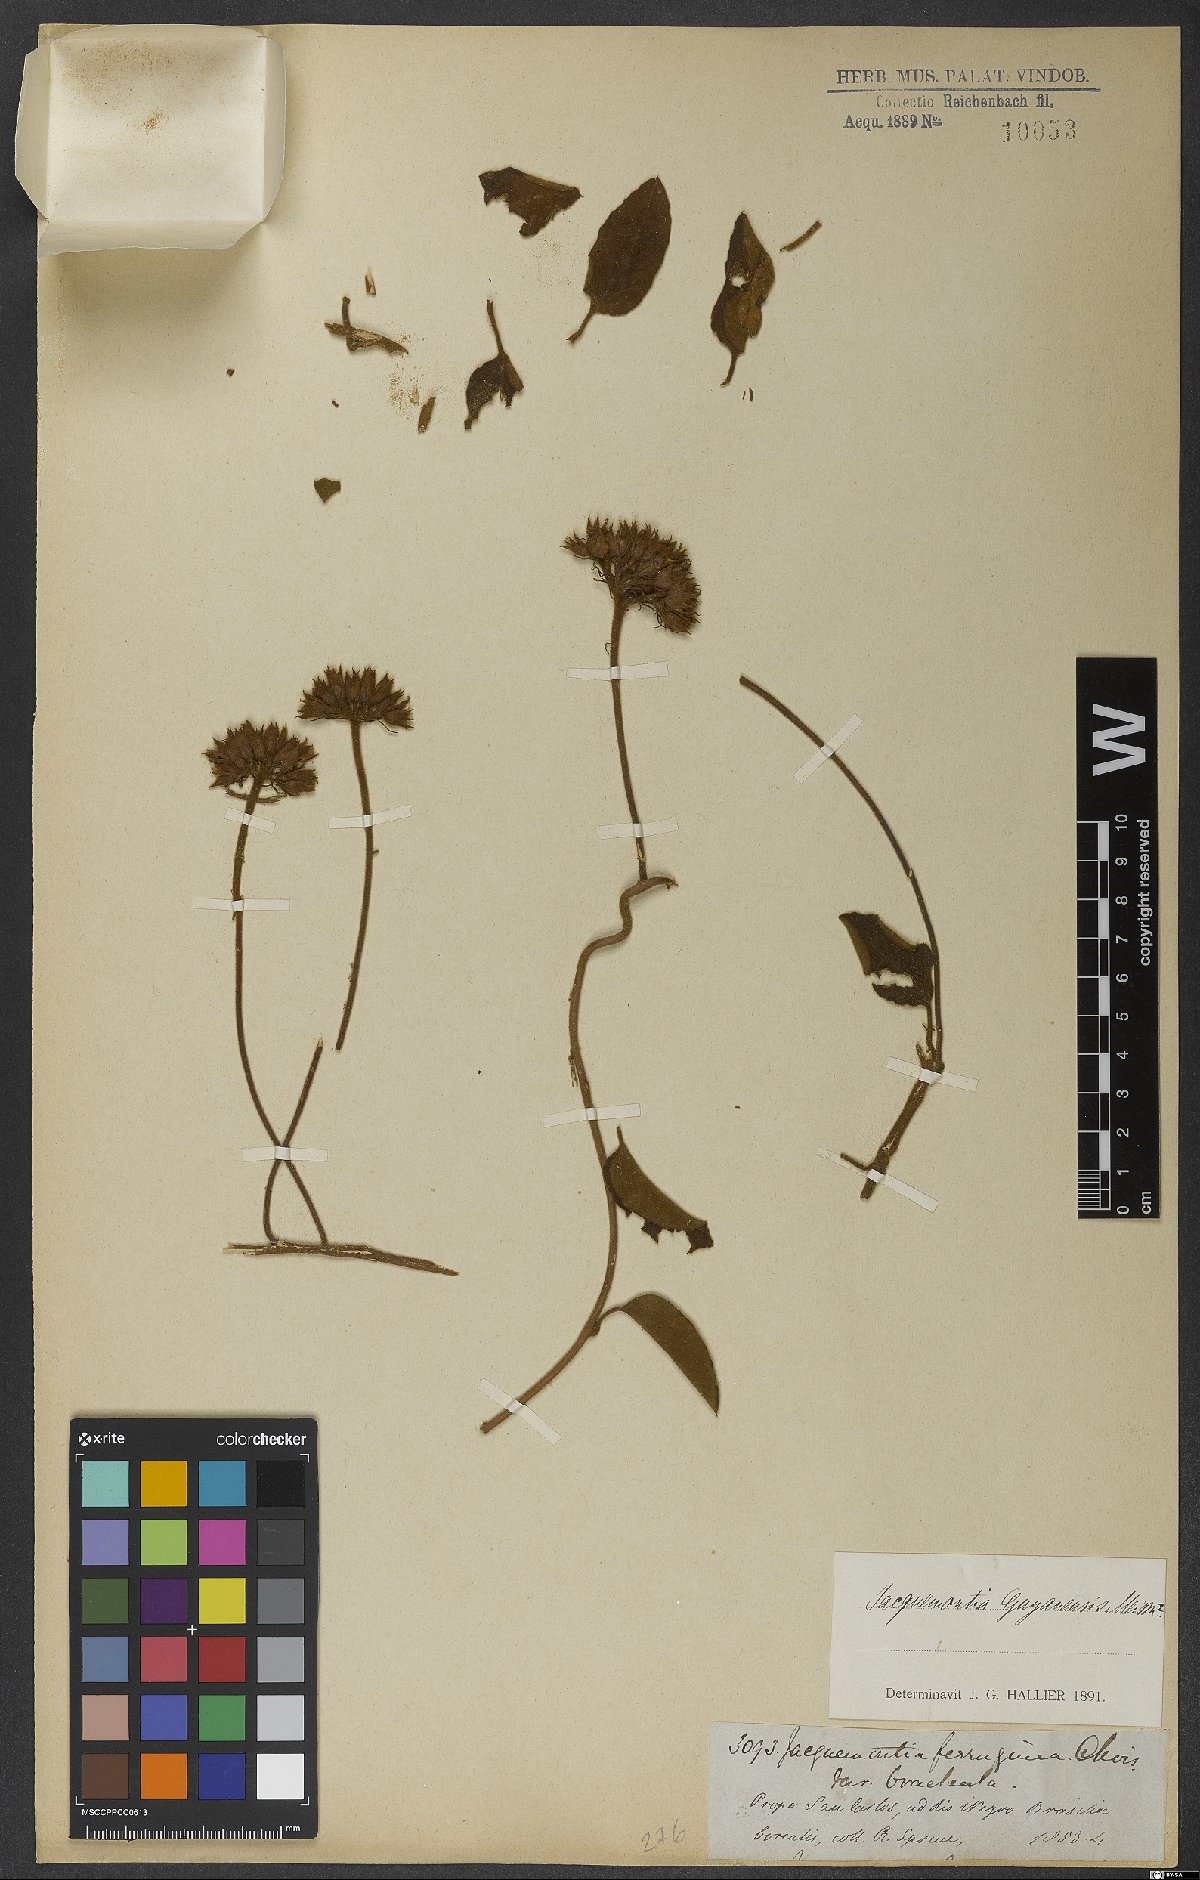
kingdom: Plantae
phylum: Tracheophyta
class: Magnoliopsida
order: Solanales
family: Convolvulaceae
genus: Jacquemontia
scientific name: Jacquemontia guyanensis
